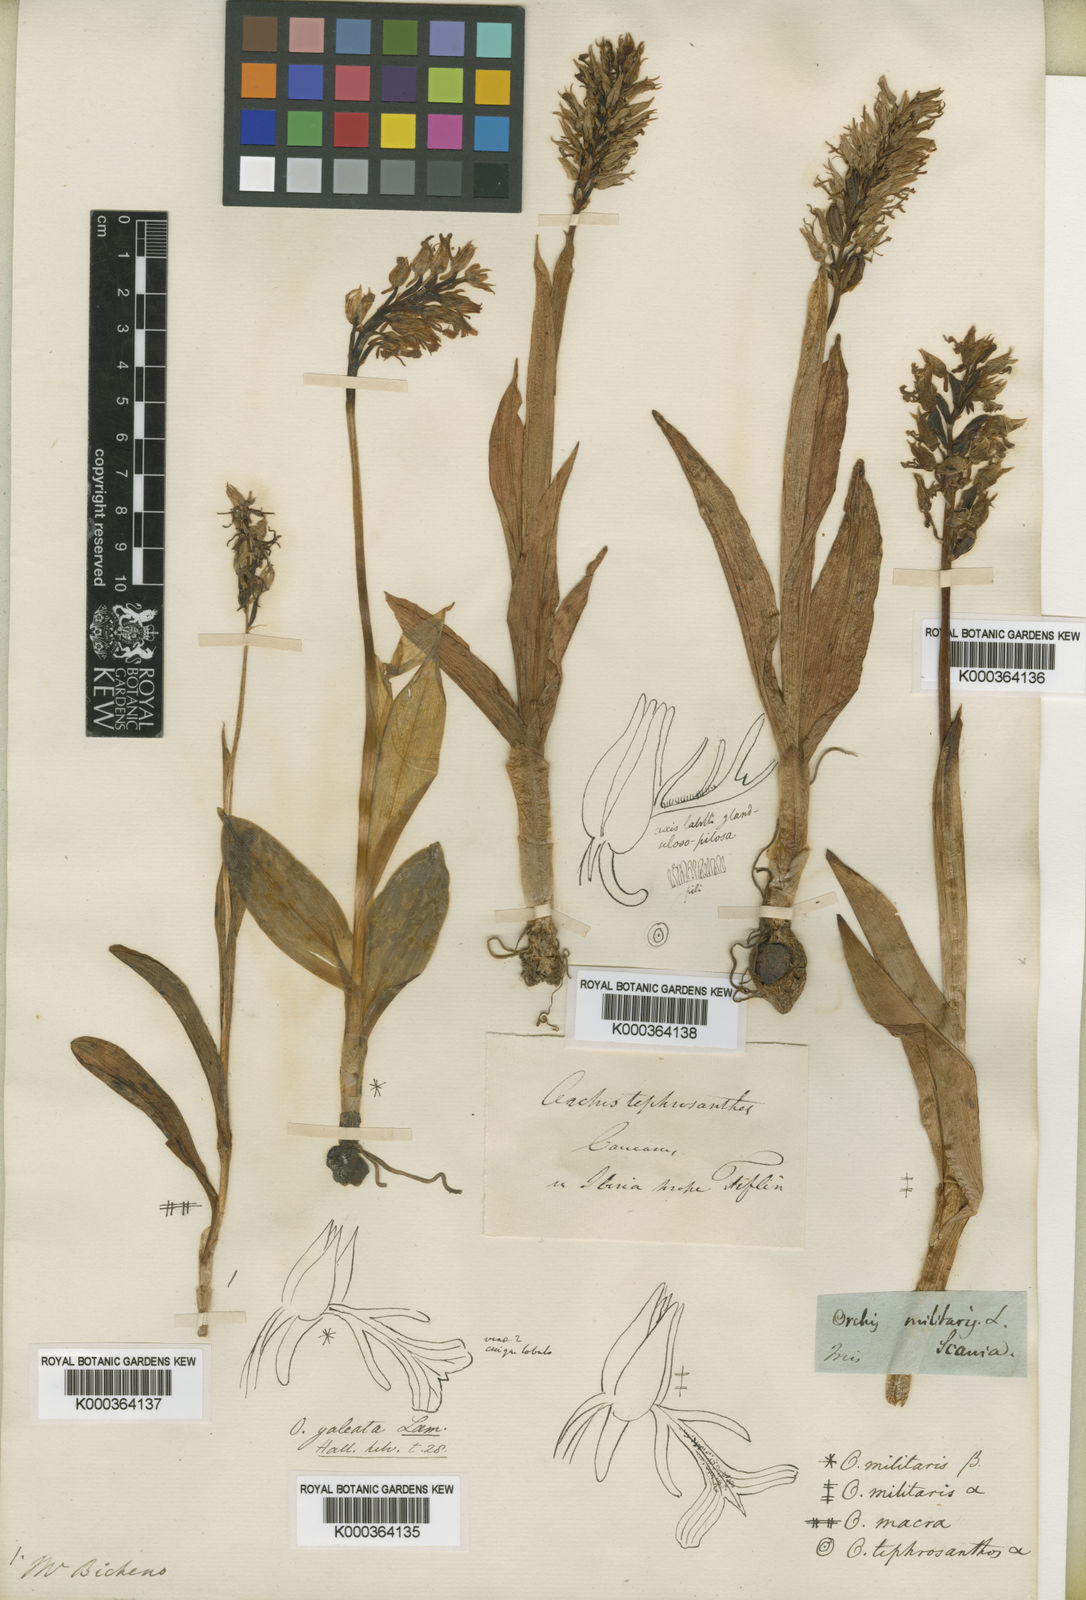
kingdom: Plantae
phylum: Tracheophyta
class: Liliopsida
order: Asparagales
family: Orchidaceae
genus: Orchis
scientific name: Orchis
